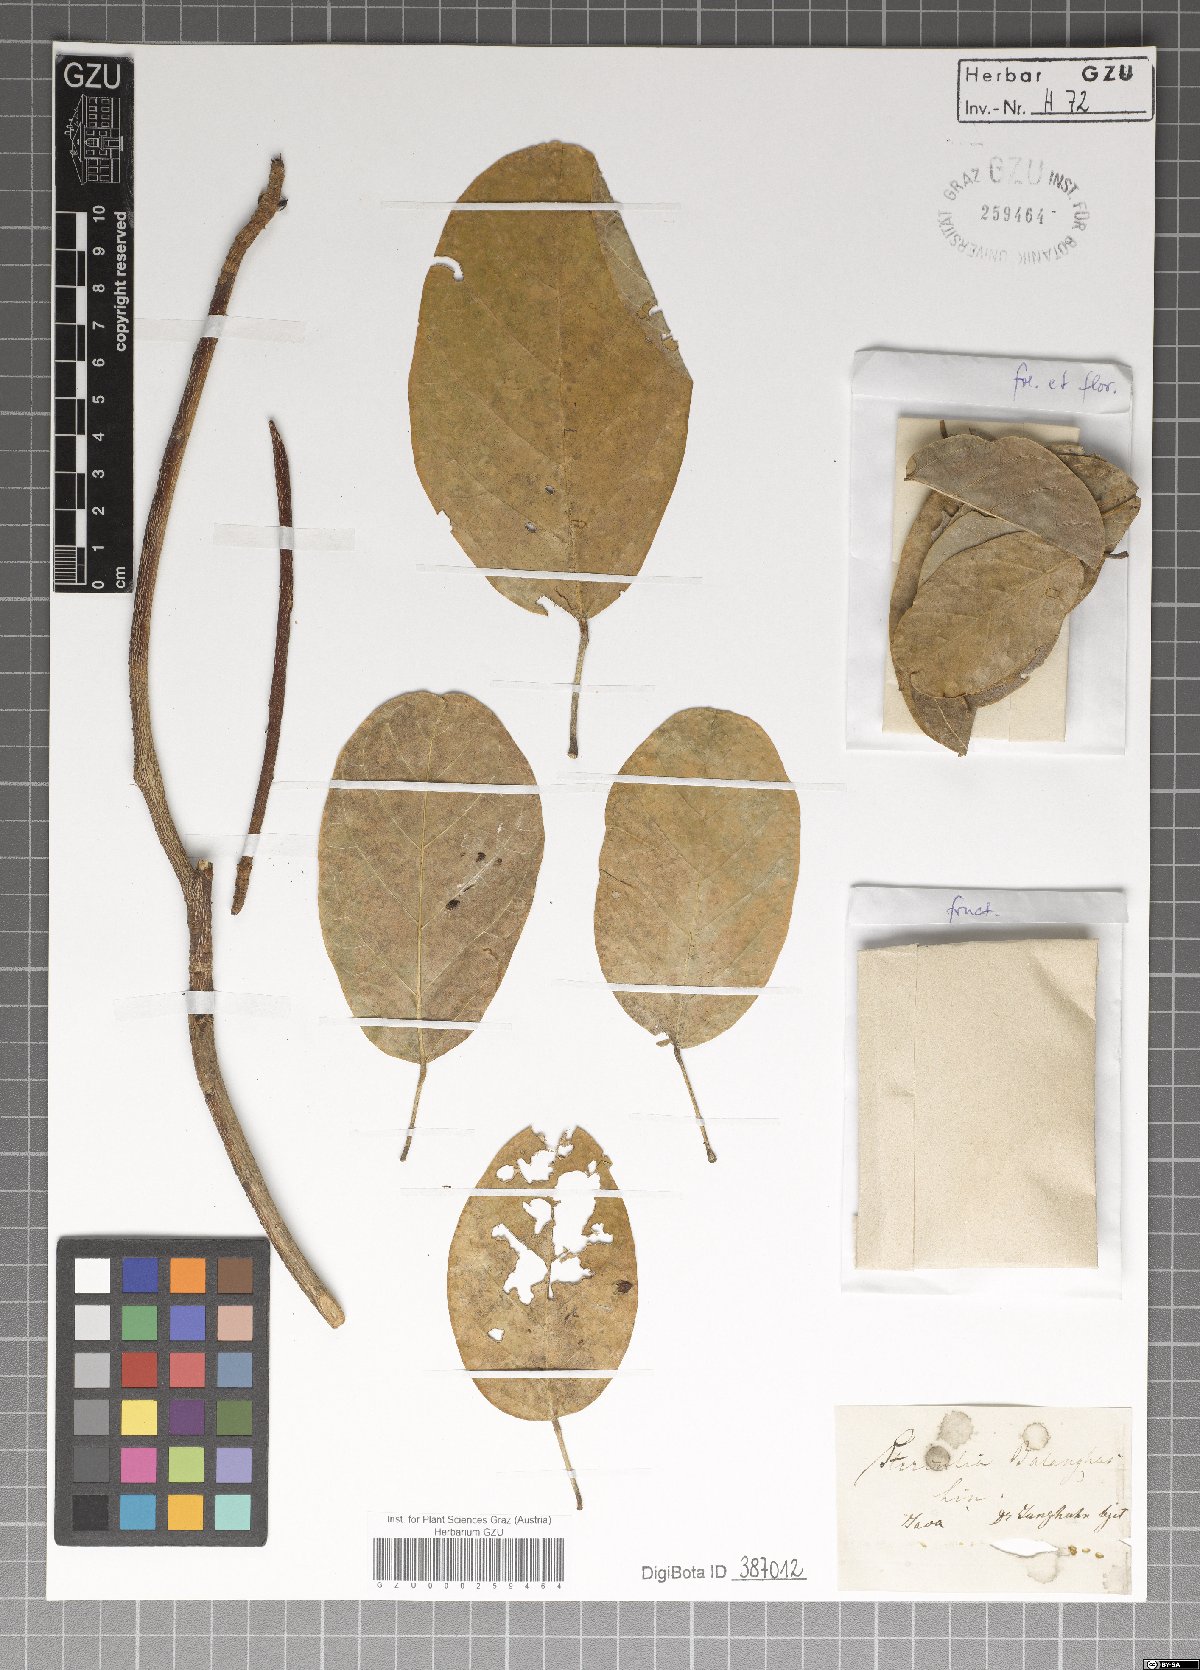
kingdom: Plantae
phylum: Tracheophyta
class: Magnoliopsida
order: Malvales
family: Malvaceae
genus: Sterculia
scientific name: Sterculia balanghas
